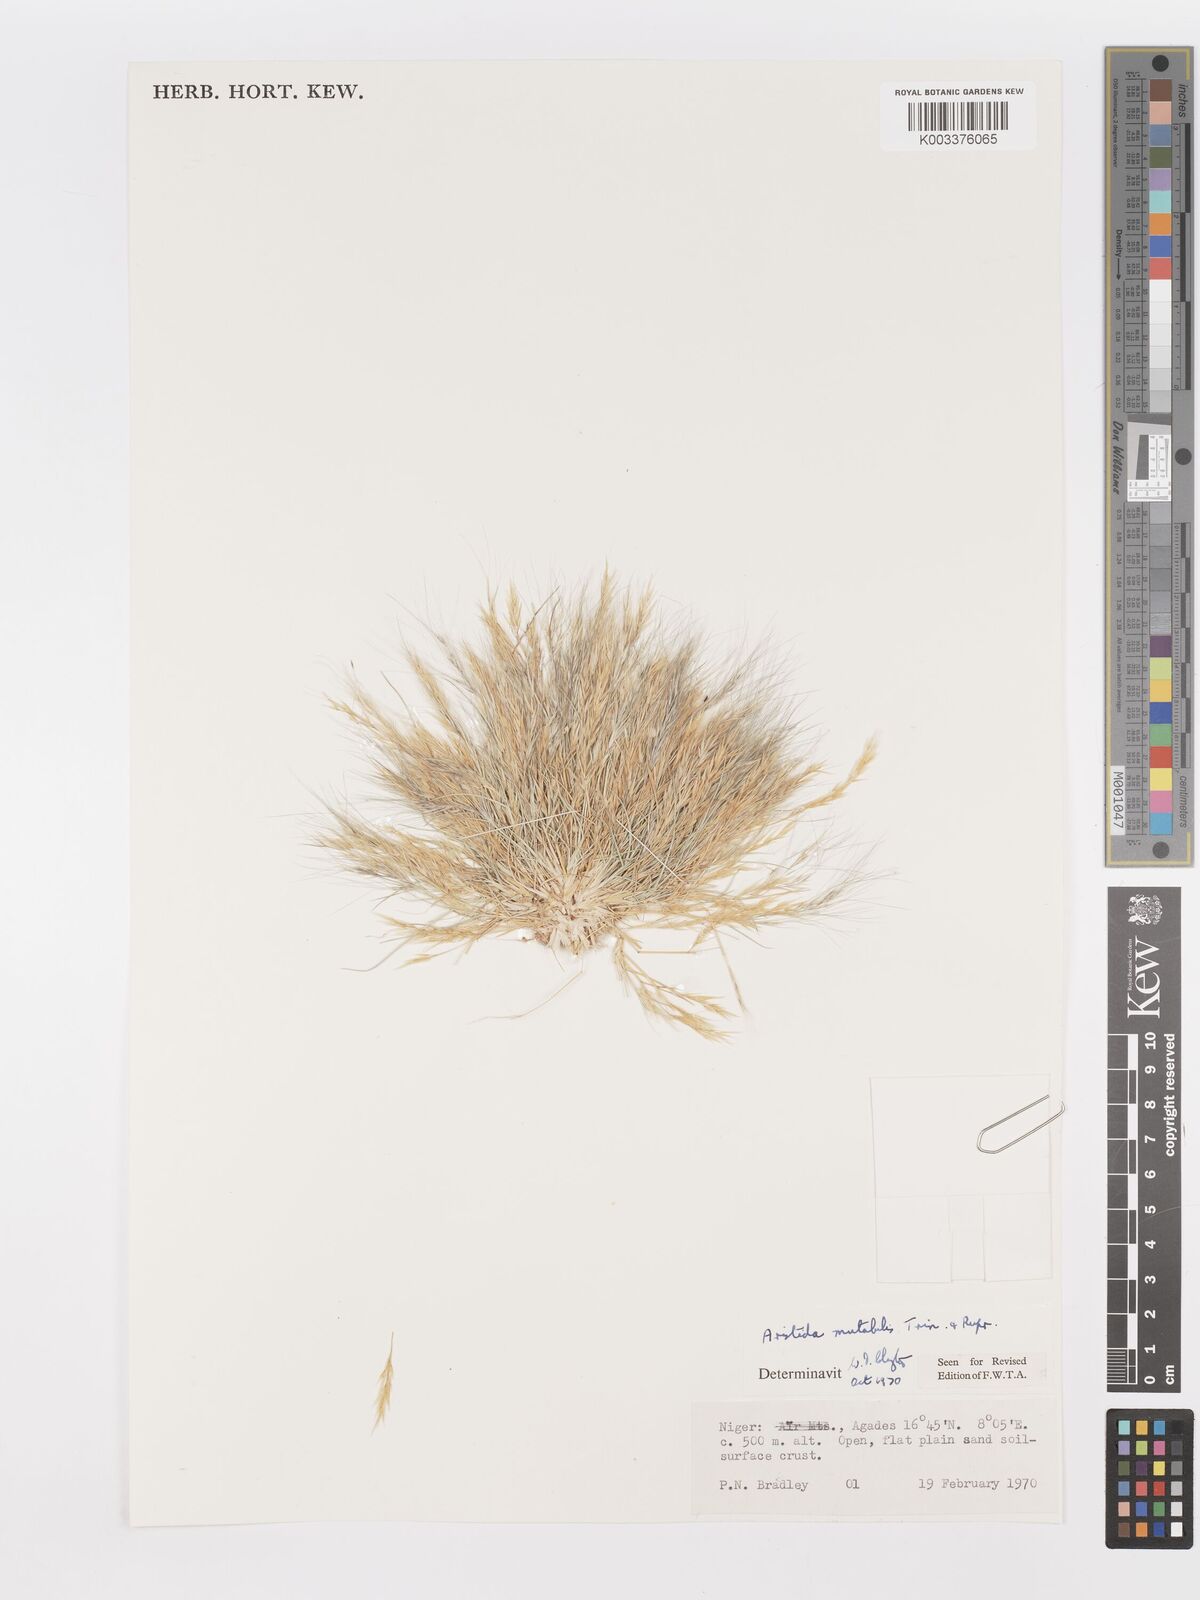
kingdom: Plantae
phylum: Tracheophyta
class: Liliopsida
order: Poales
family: Poaceae
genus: Aristida
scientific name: Aristida mutabilis
